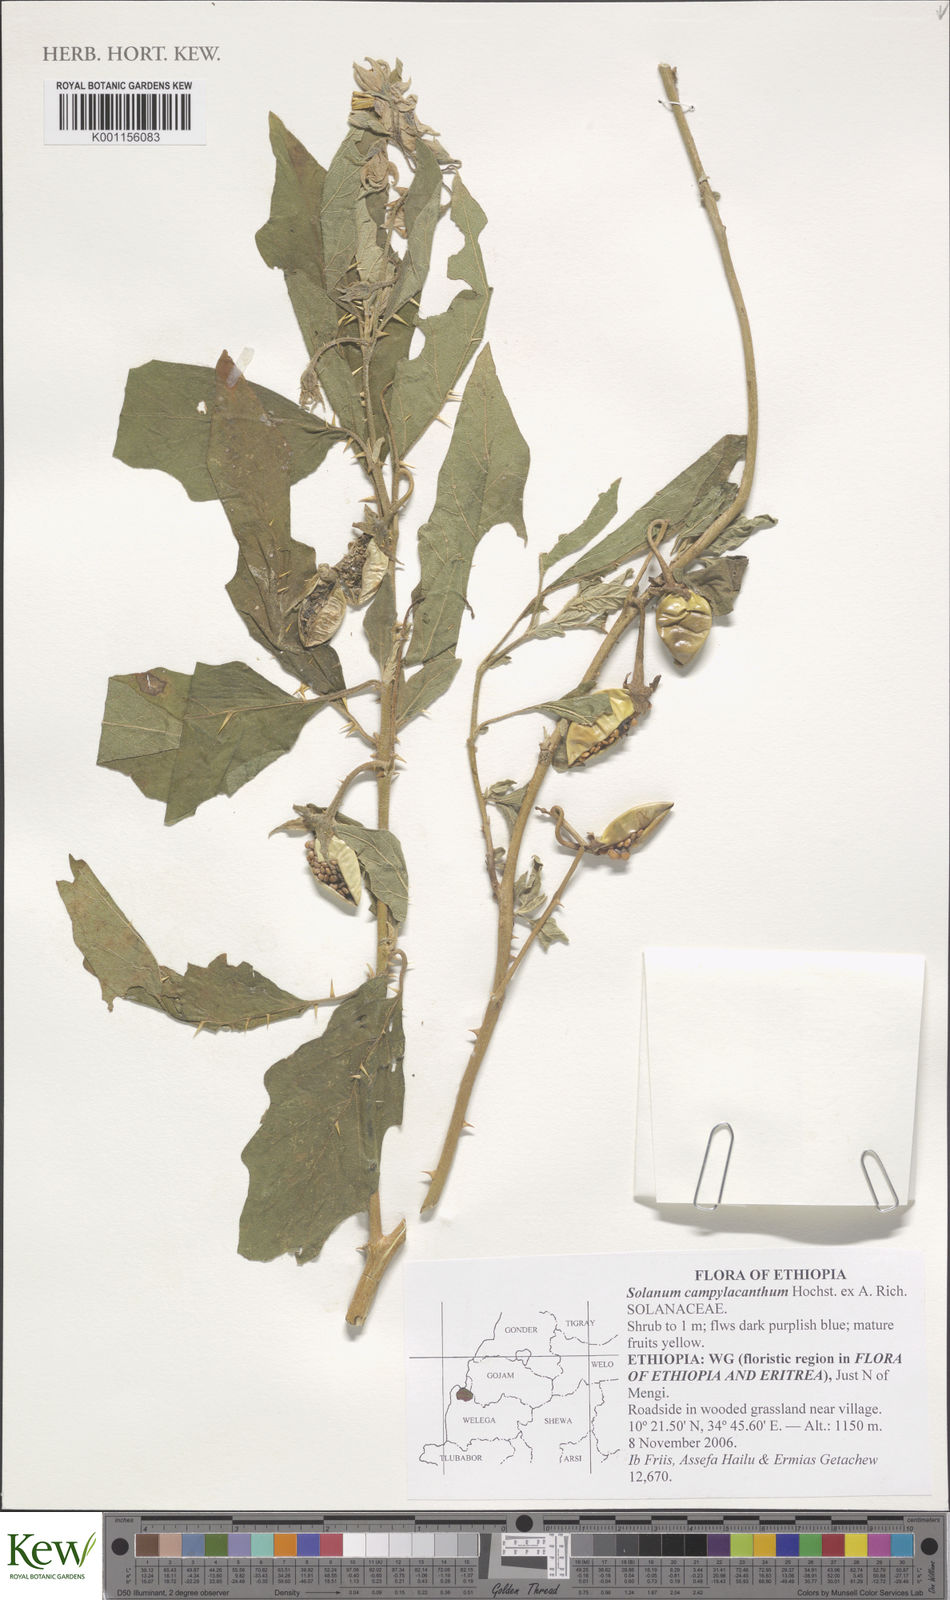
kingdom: Plantae
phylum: Tracheophyta
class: Magnoliopsida
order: Solanales
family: Solanaceae
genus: Solanum
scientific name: Solanum cerasiferum
